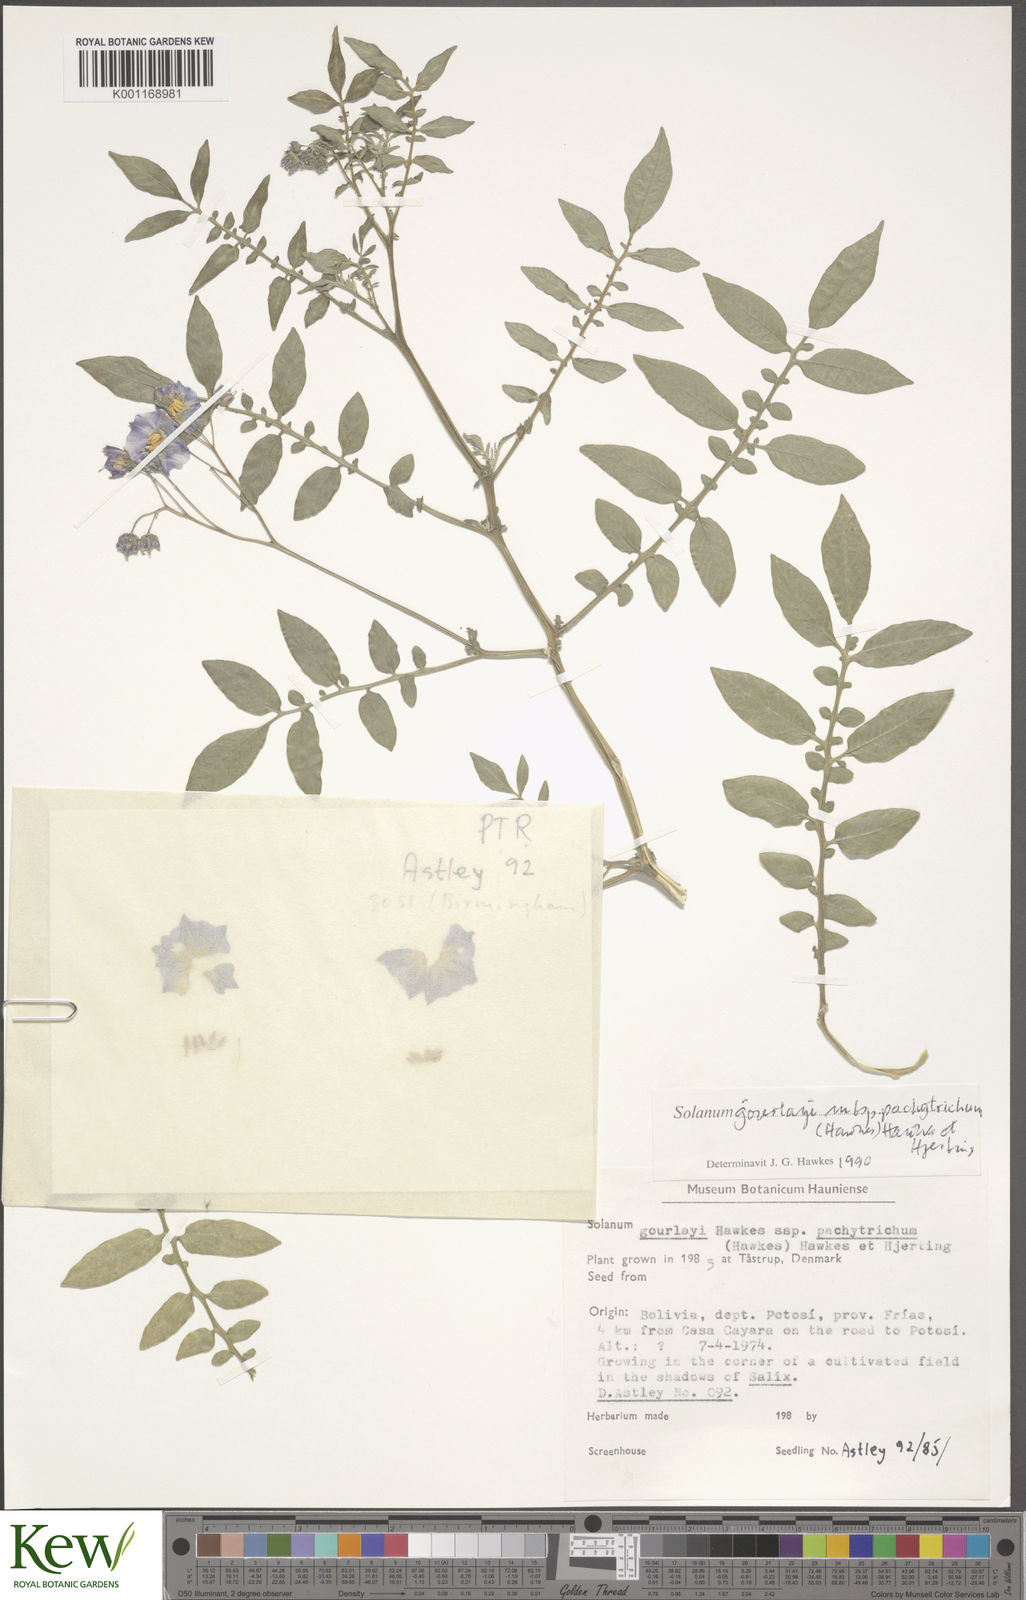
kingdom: Plantae
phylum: Tracheophyta
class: Magnoliopsida
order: Solanales
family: Solanaceae
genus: Solanum
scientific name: Solanum brevicaule
